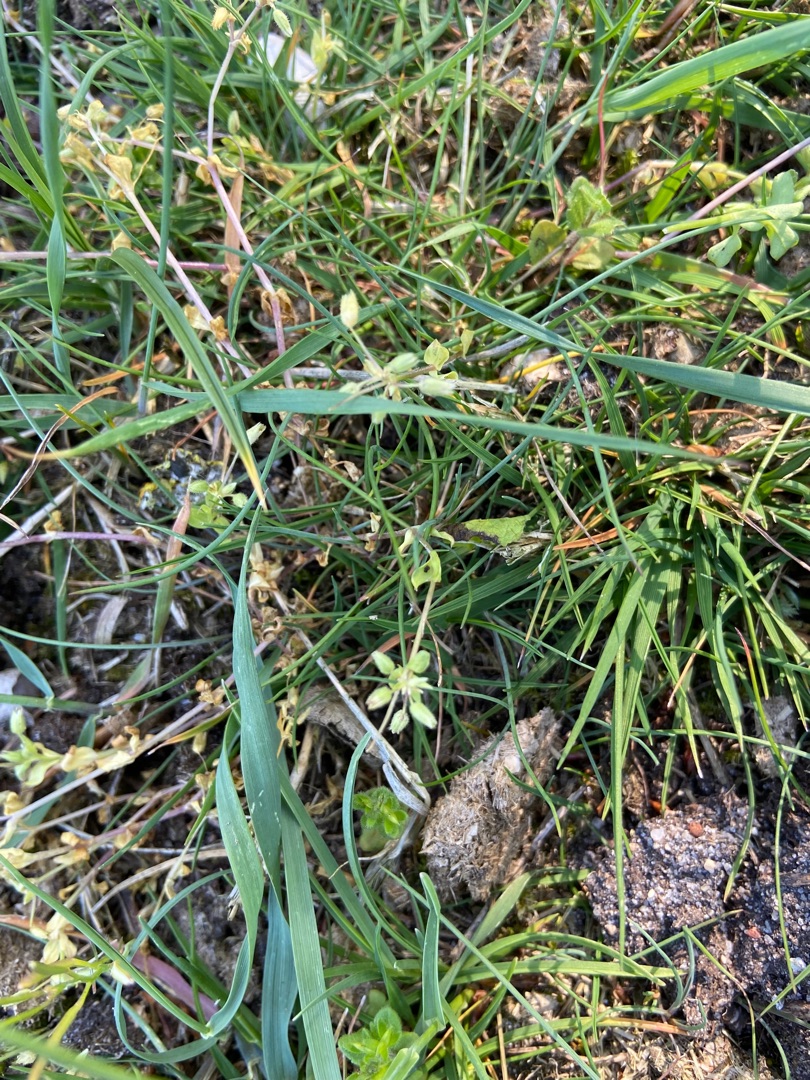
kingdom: Plantae
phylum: Tracheophyta
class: Magnoliopsida
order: Caryophyllales
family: Caryophyllaceae
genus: Stellaria
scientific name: Stellaria apetala
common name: Bleg fuglegræs
